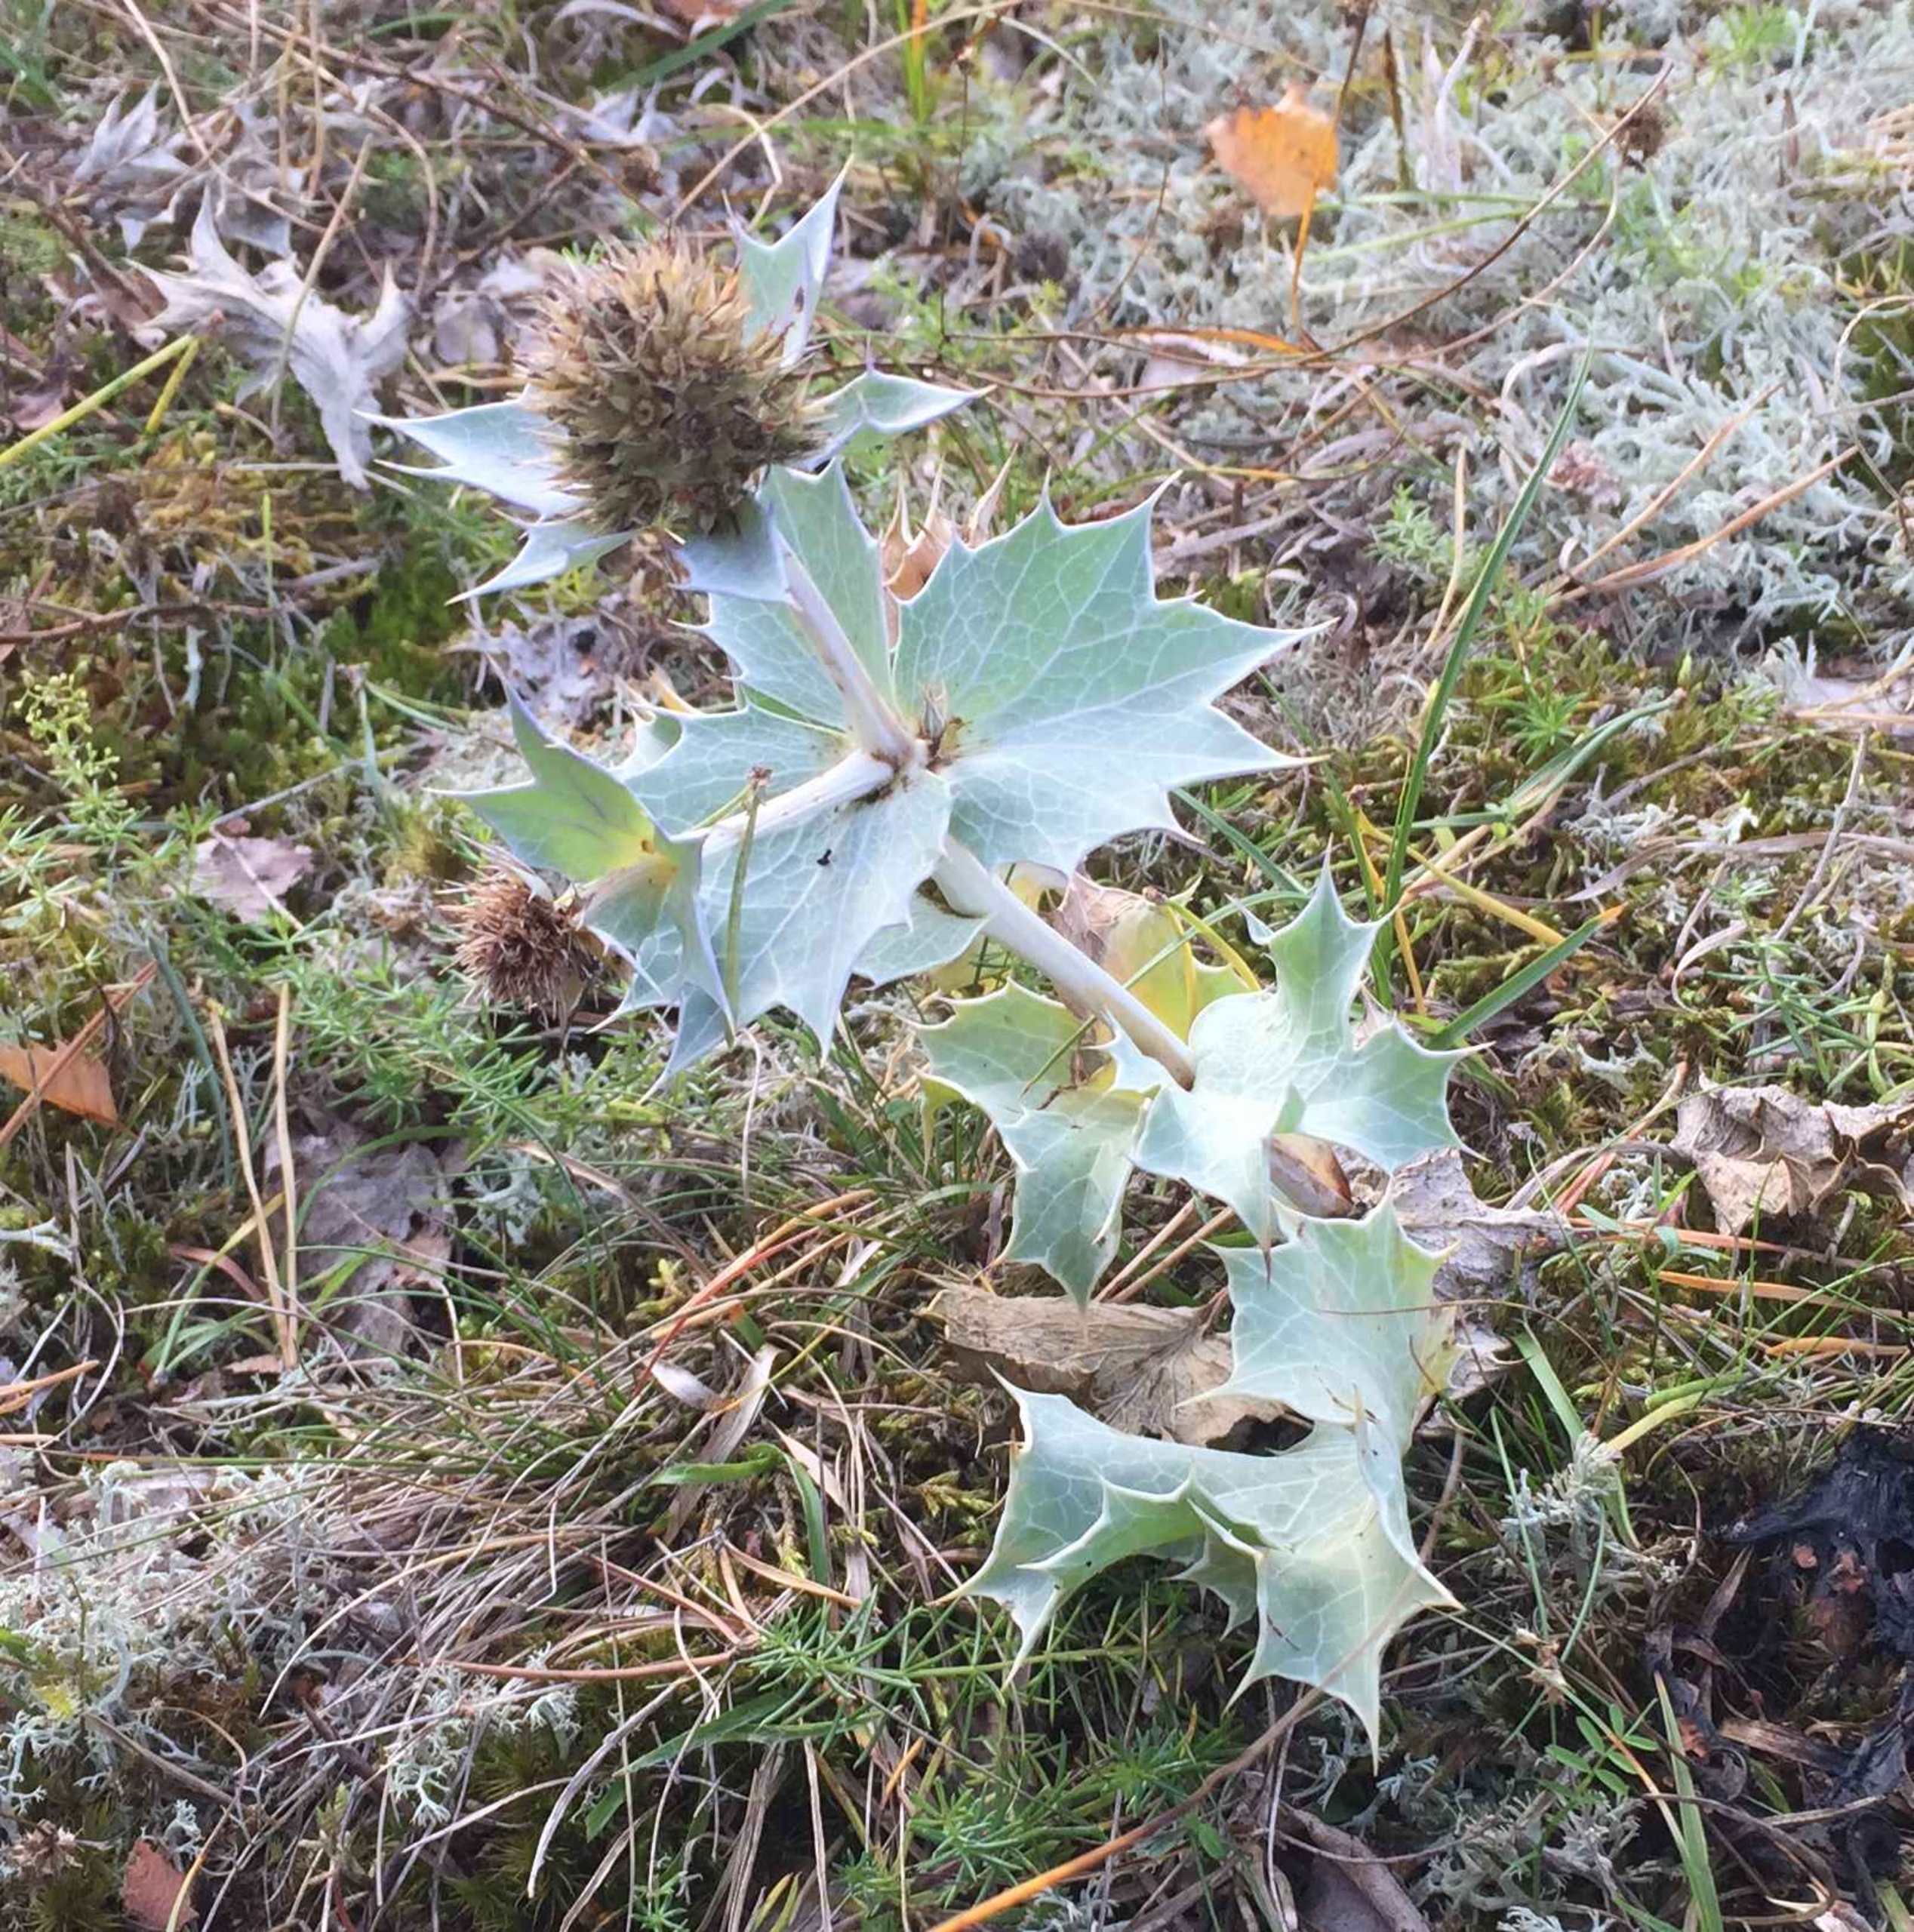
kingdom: Plantae
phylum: Tracheophyta
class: Magnoliopsida
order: Apiales
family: Apiaceae
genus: Eryngium
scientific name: Eryngium maritimum
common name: Strand-mandstro
